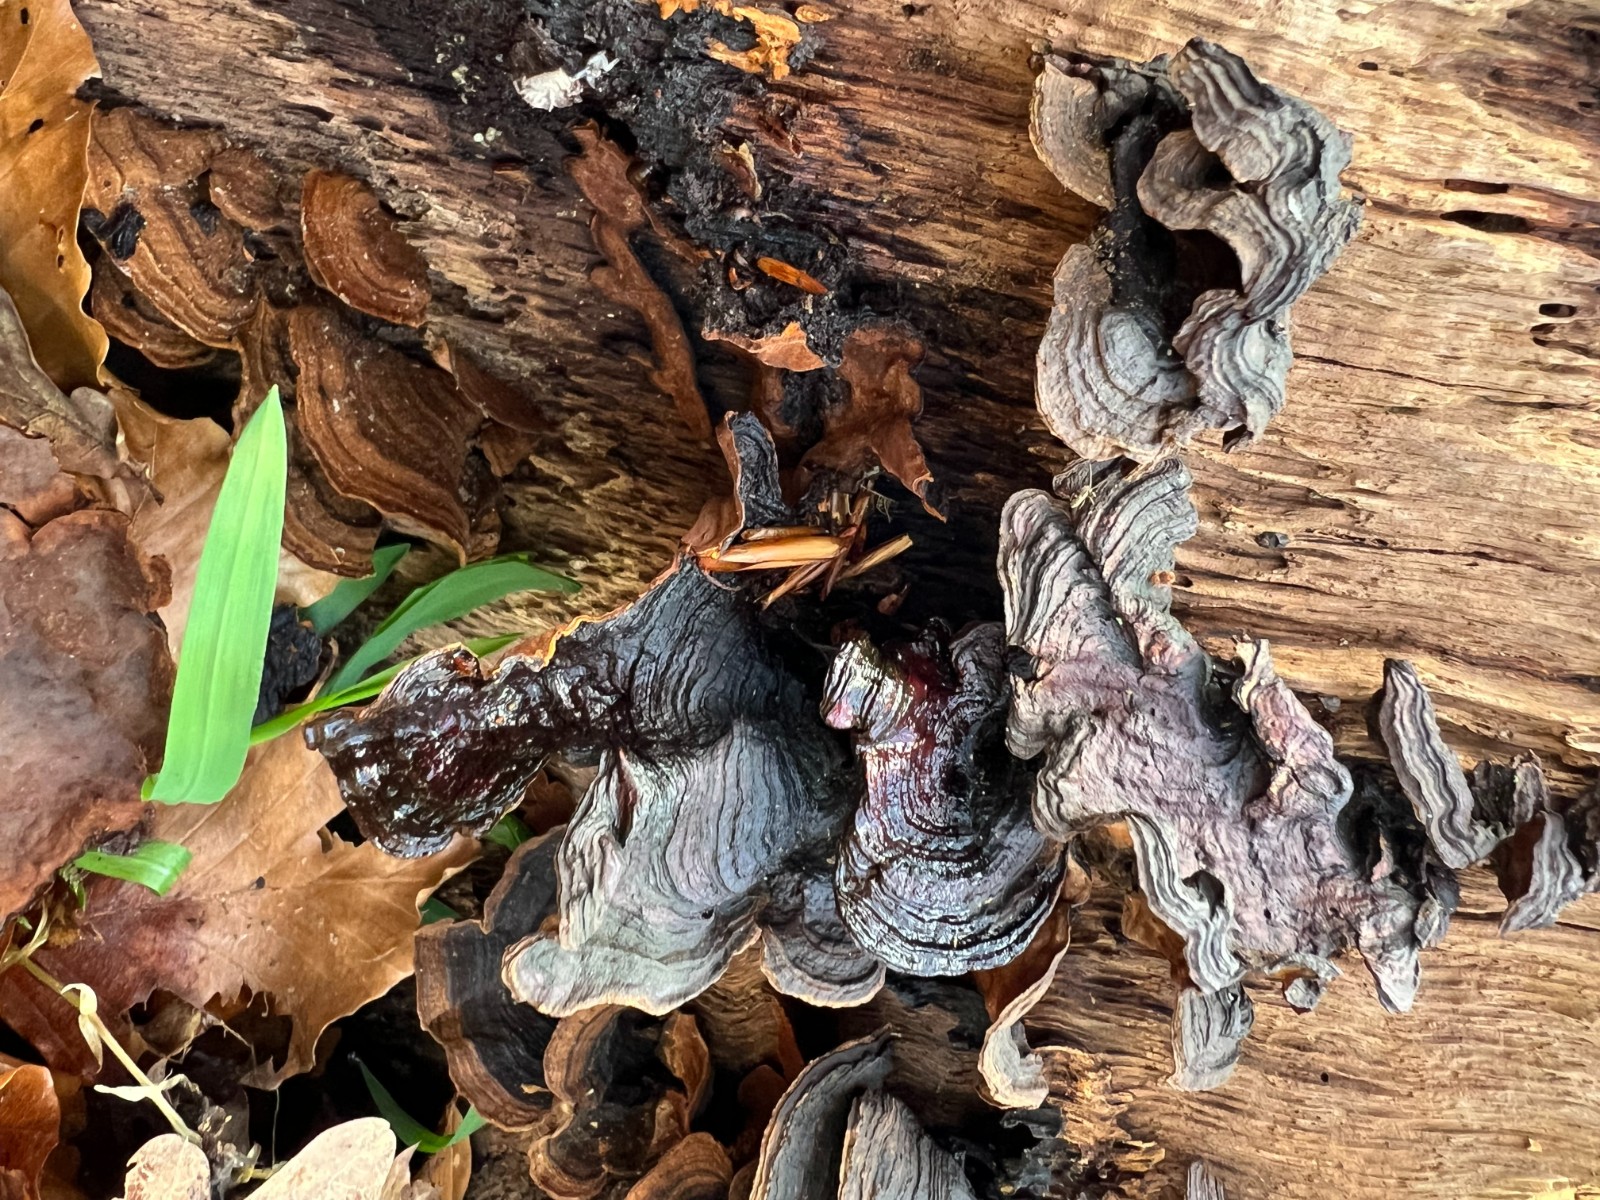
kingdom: Fungi
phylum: Basidiomycota
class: Agaricomycetes
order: Hymenochaetales
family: Hymenochaetaceae
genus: Hymenochaete
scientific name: Hymenochaete rubiginosa
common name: stiv ruslædersvamp
